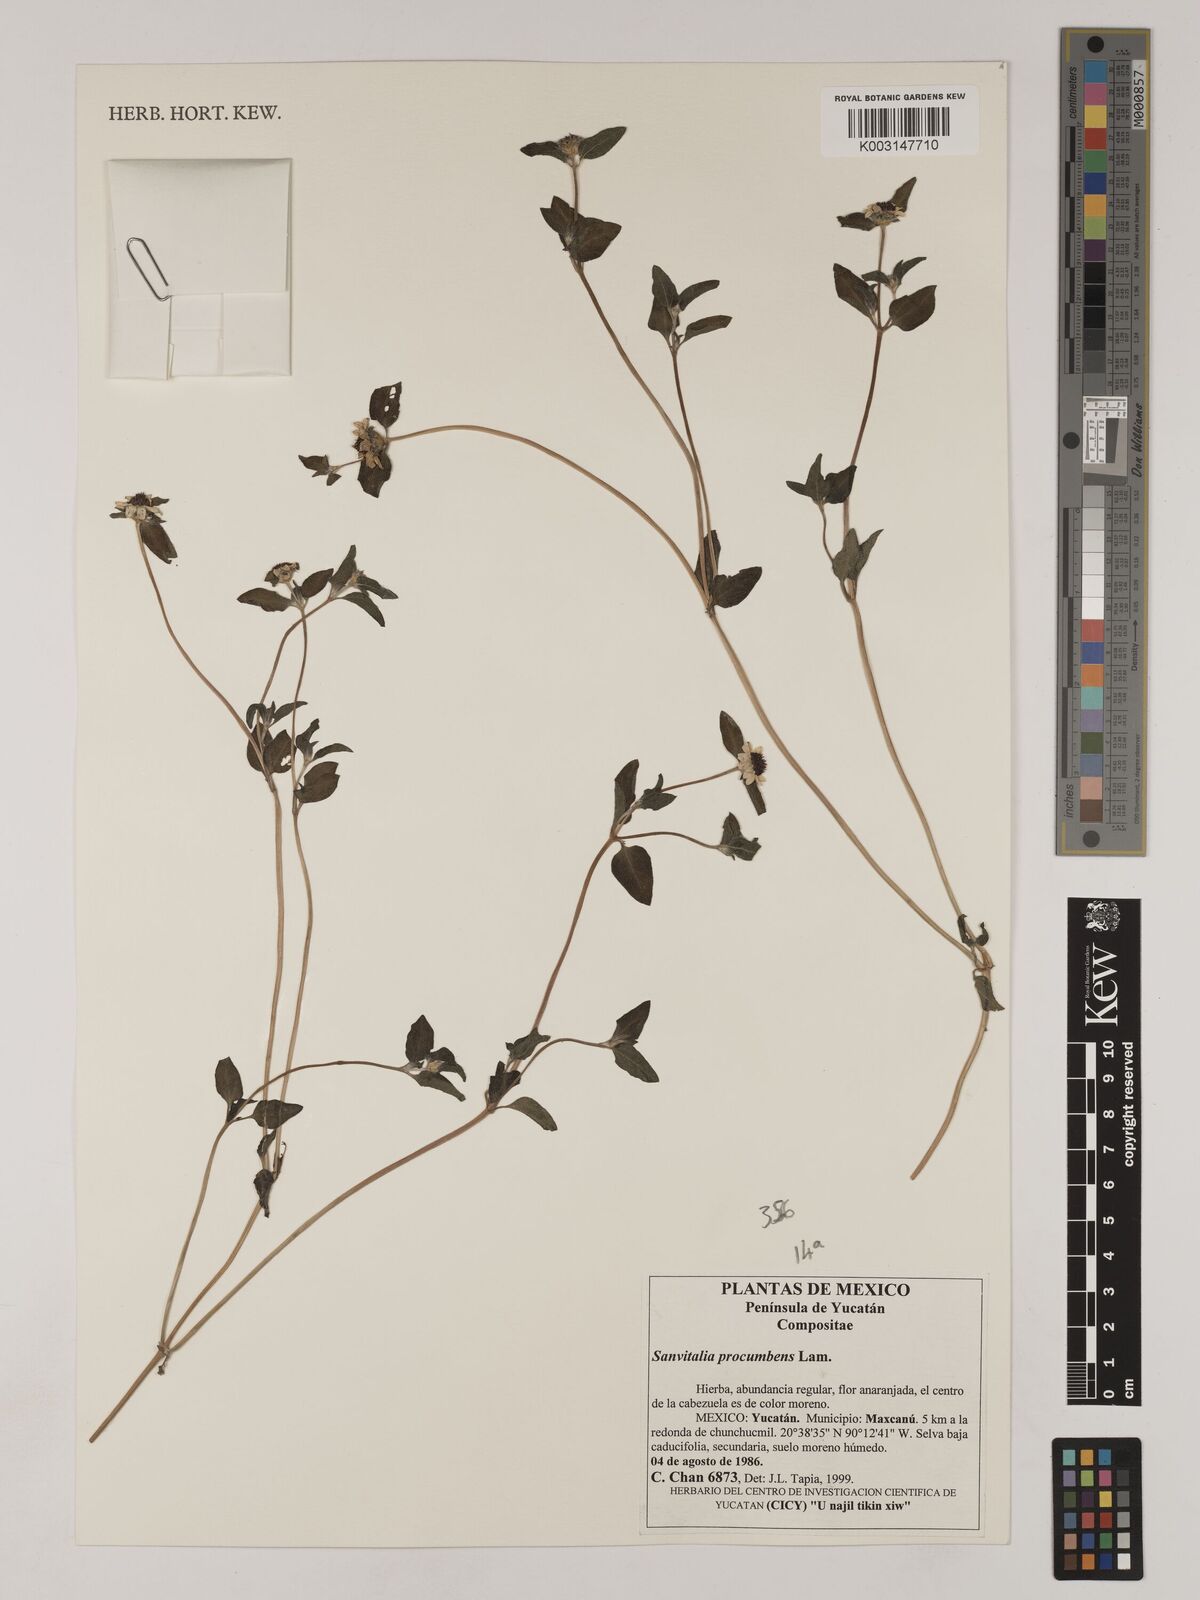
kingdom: Plantae
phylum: Tracheophyta
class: Magnoliopsida
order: Asterales
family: Asteraceae
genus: Sanvitalia
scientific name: Sanvitalia procumbens
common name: Mexican creeping zinnia
